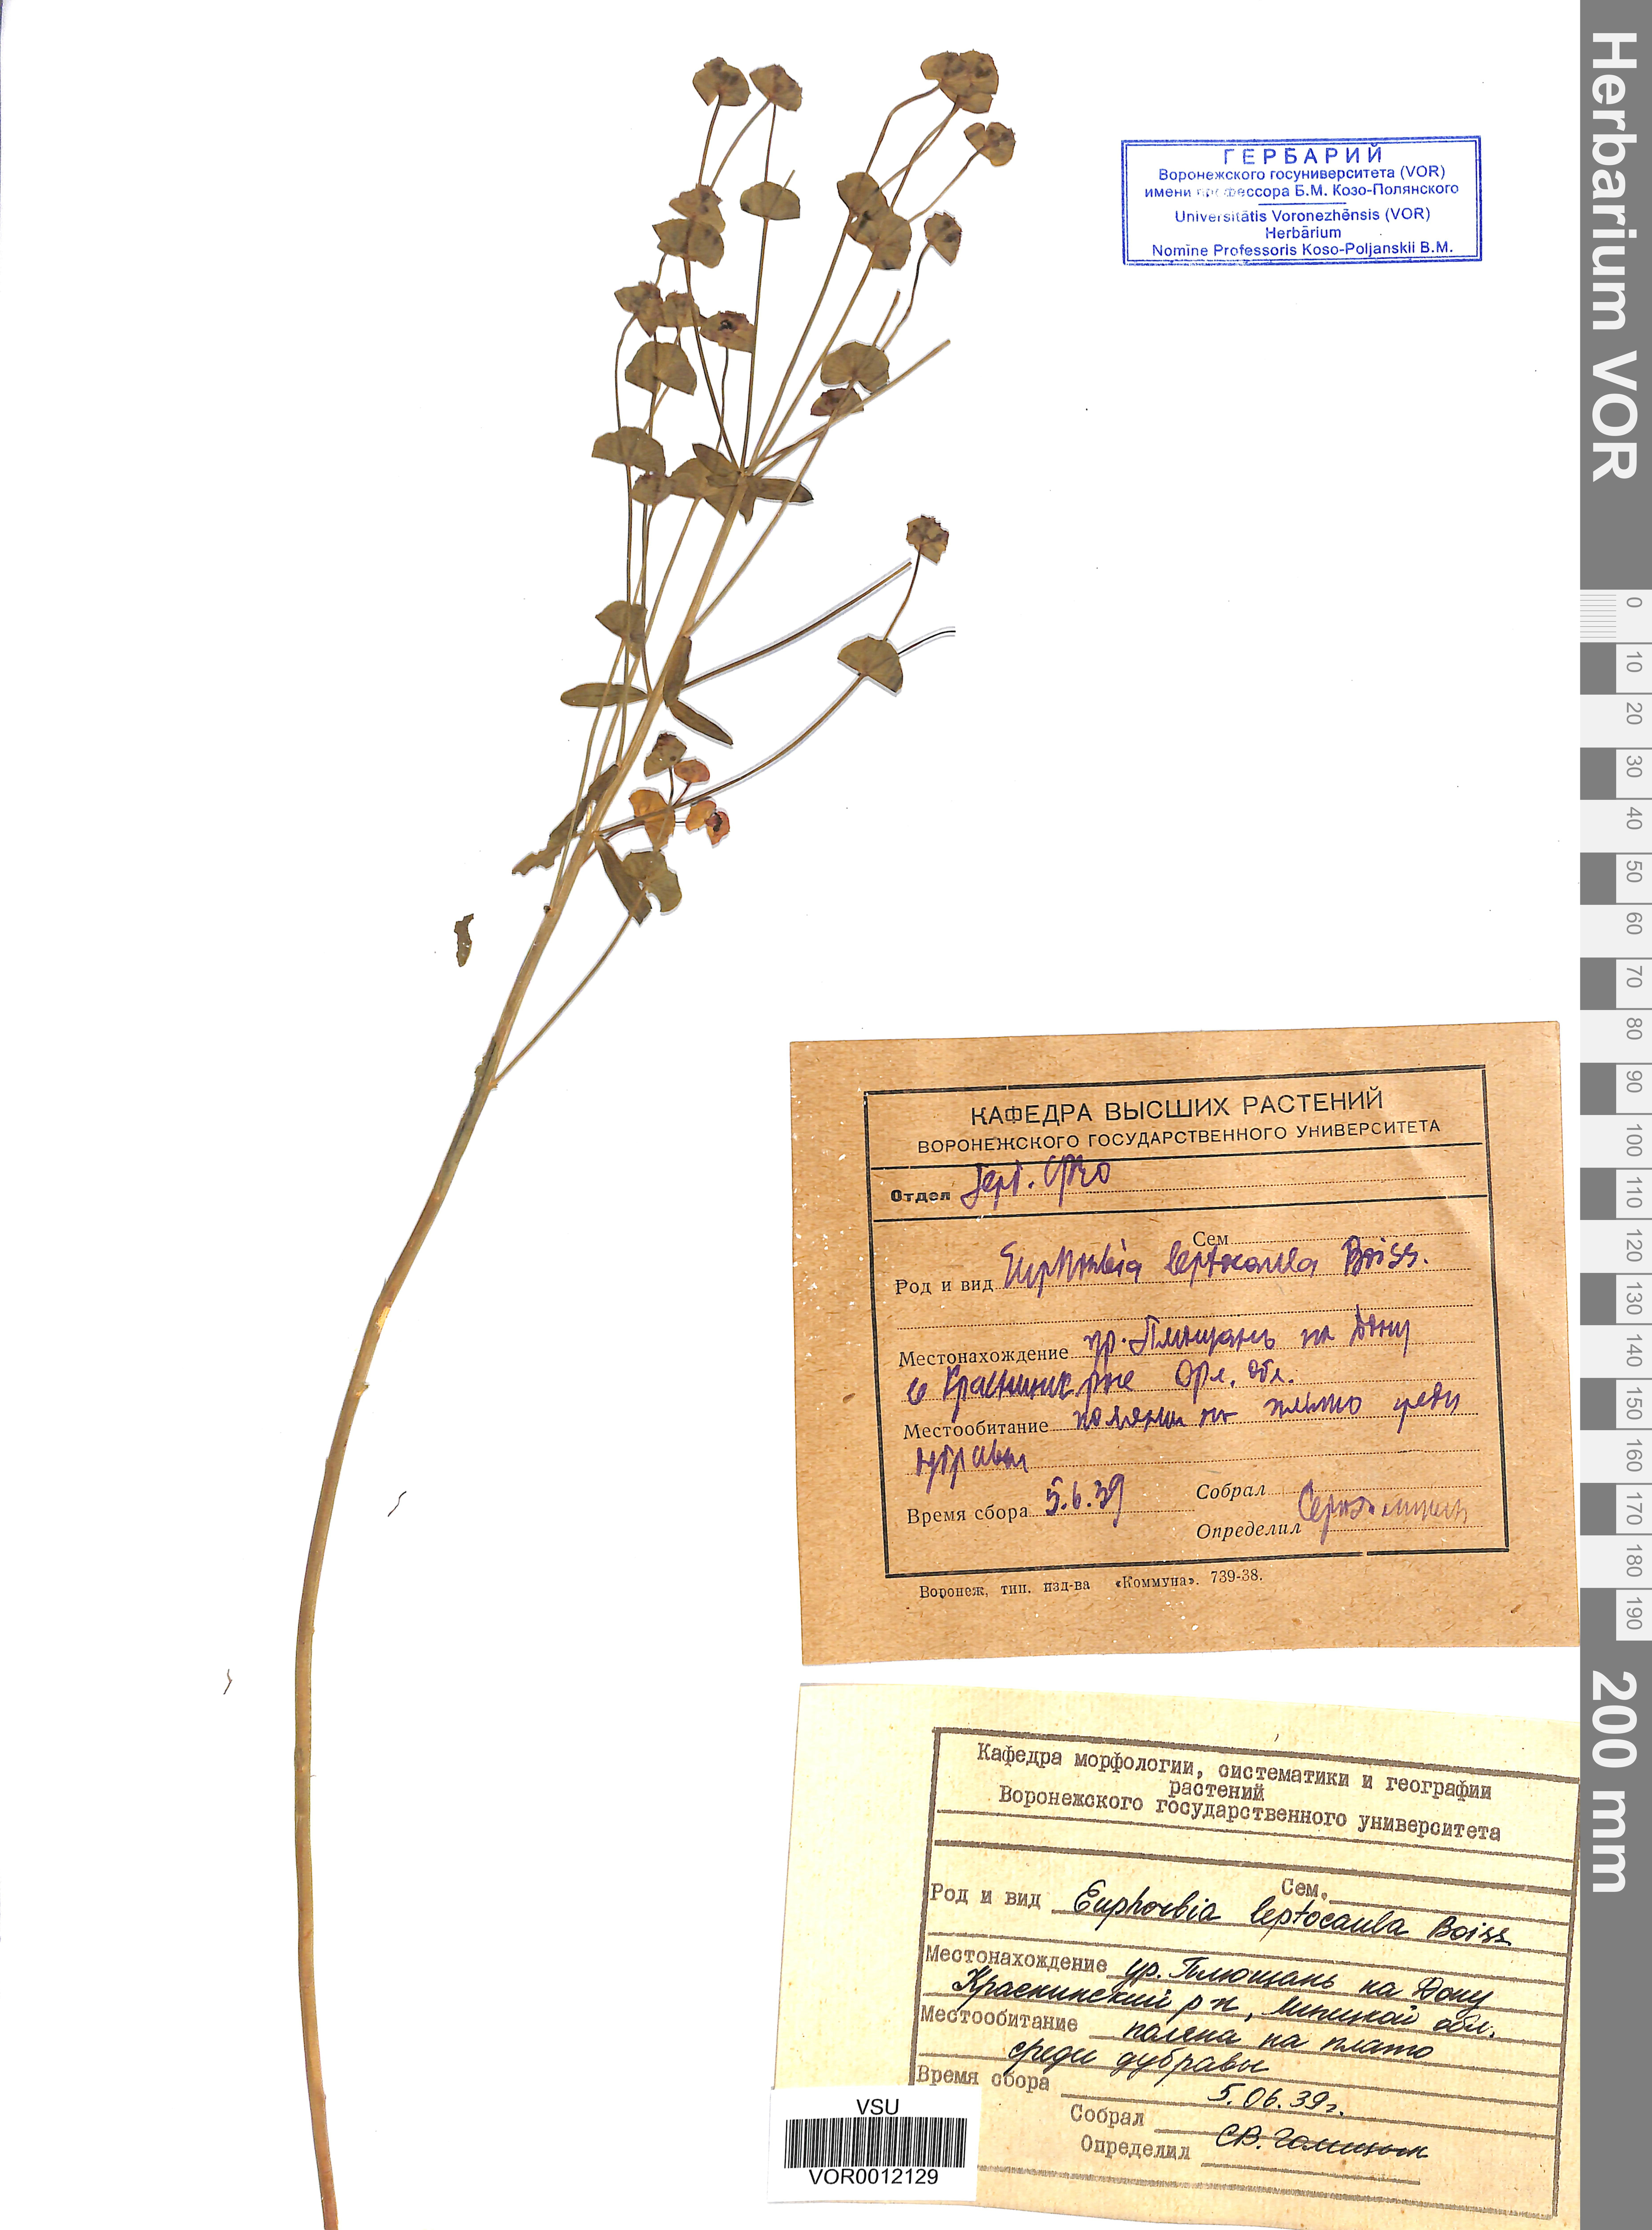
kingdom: Plantae
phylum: Tracheophyta
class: Magnoliopsida
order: Malpighiales
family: Euphorbiaceae
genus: Euphorbia
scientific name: Euphorbia leptocaula
